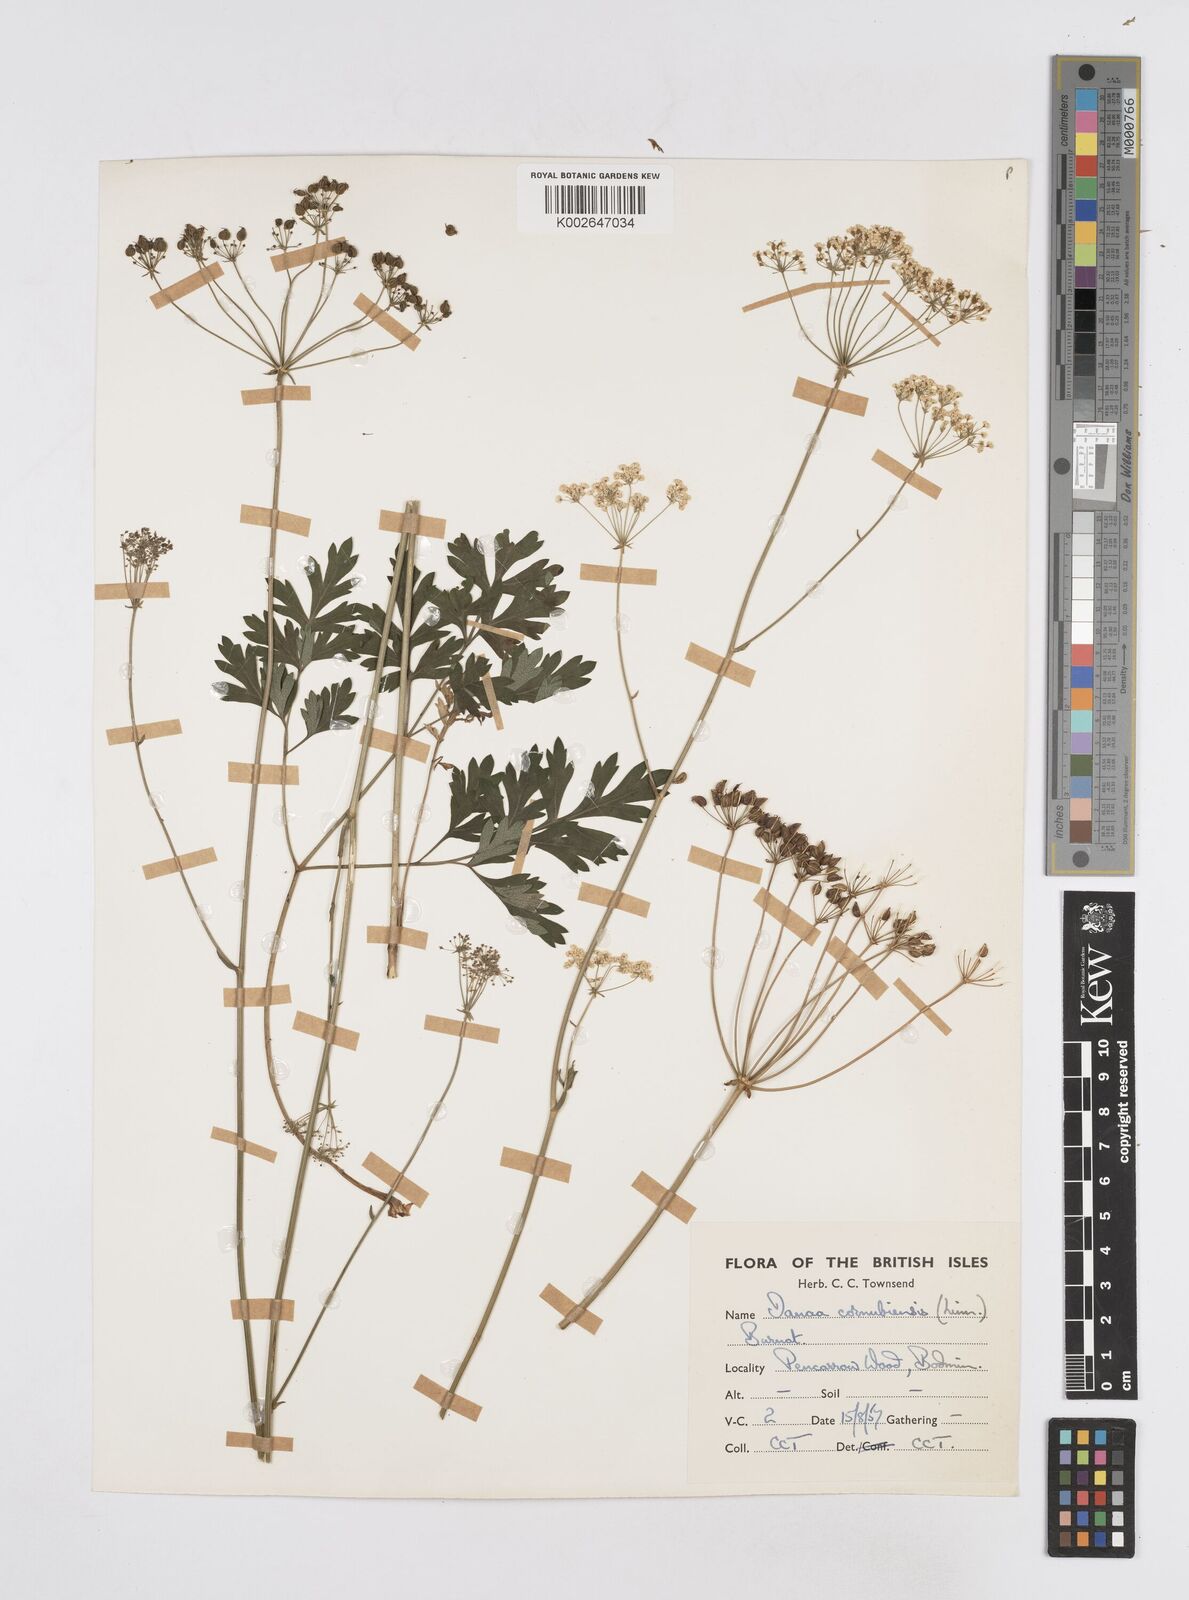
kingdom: Plantae
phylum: Tracheophyta
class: Magnoliopsida
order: Apiales
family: Apiaceae
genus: Physospermum
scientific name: Physospermum cornubiense
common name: Bladderseed
